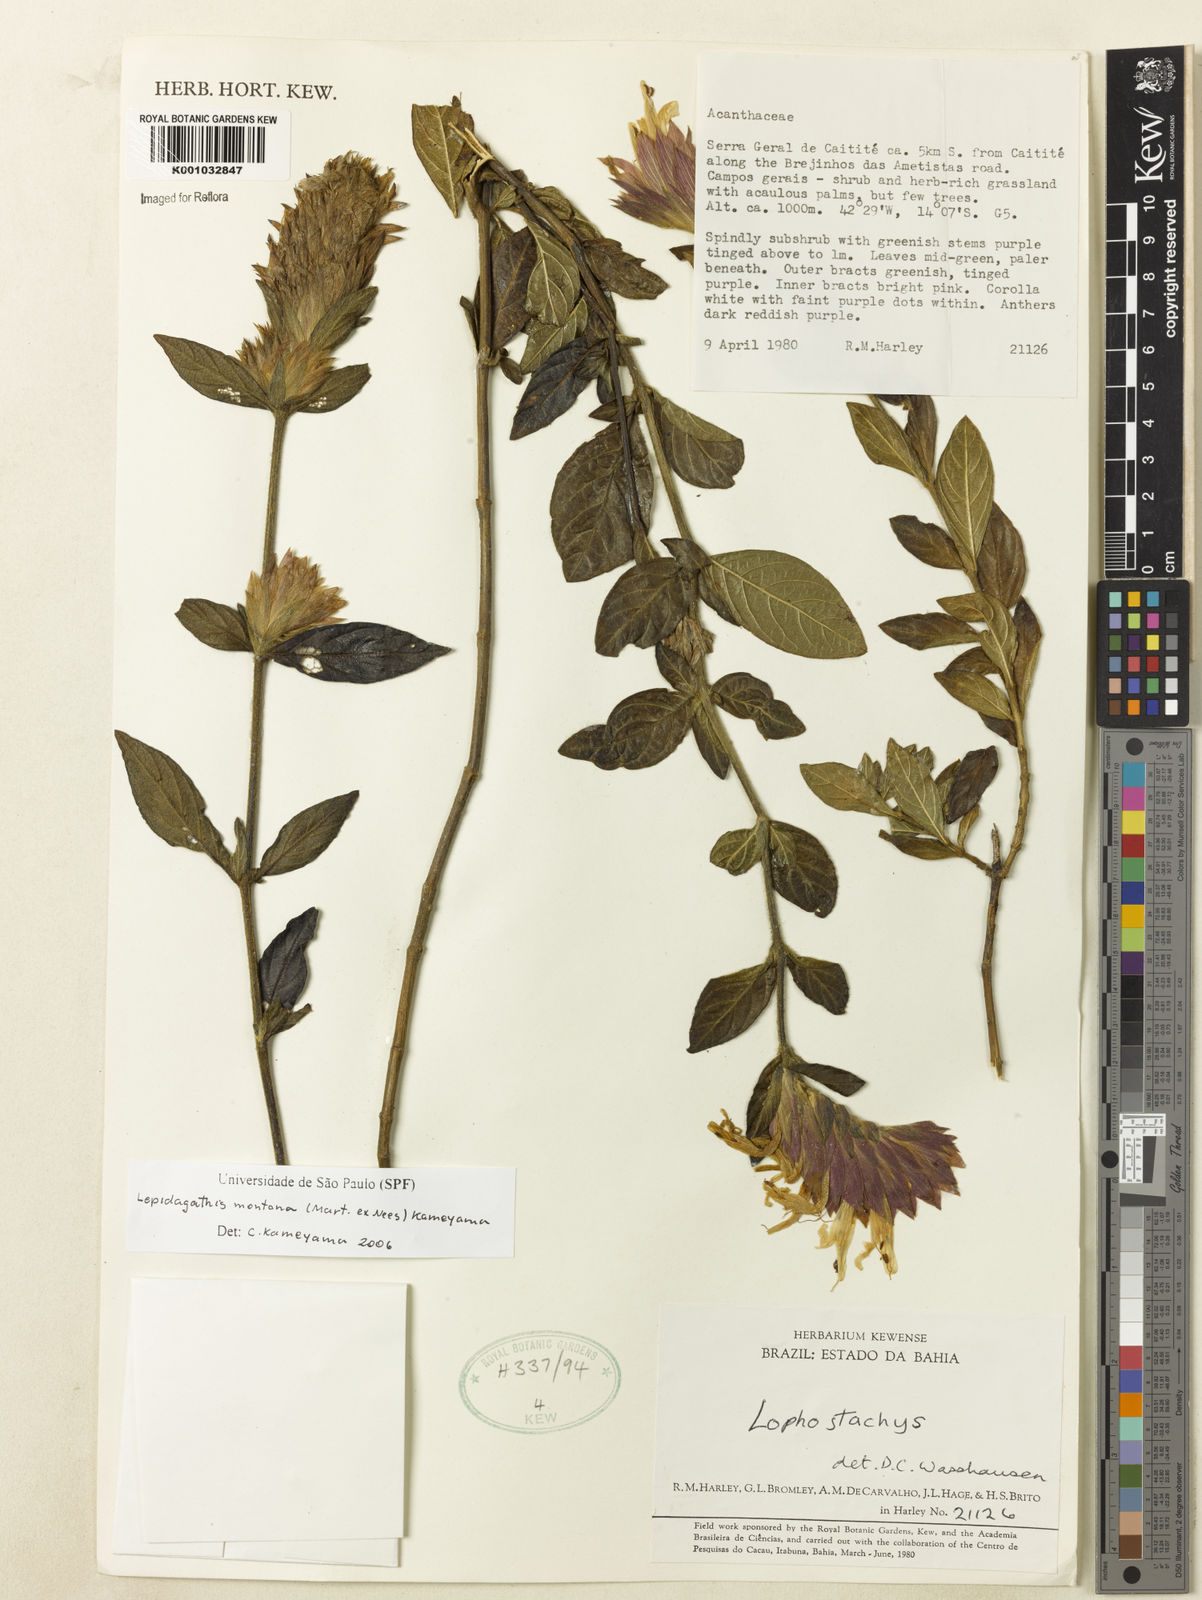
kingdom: Plantae
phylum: Tracheophyta
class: Magnoliopsida
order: Lamiales
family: Acanthaceae
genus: Lepidagathis
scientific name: Lepidagathis montana
